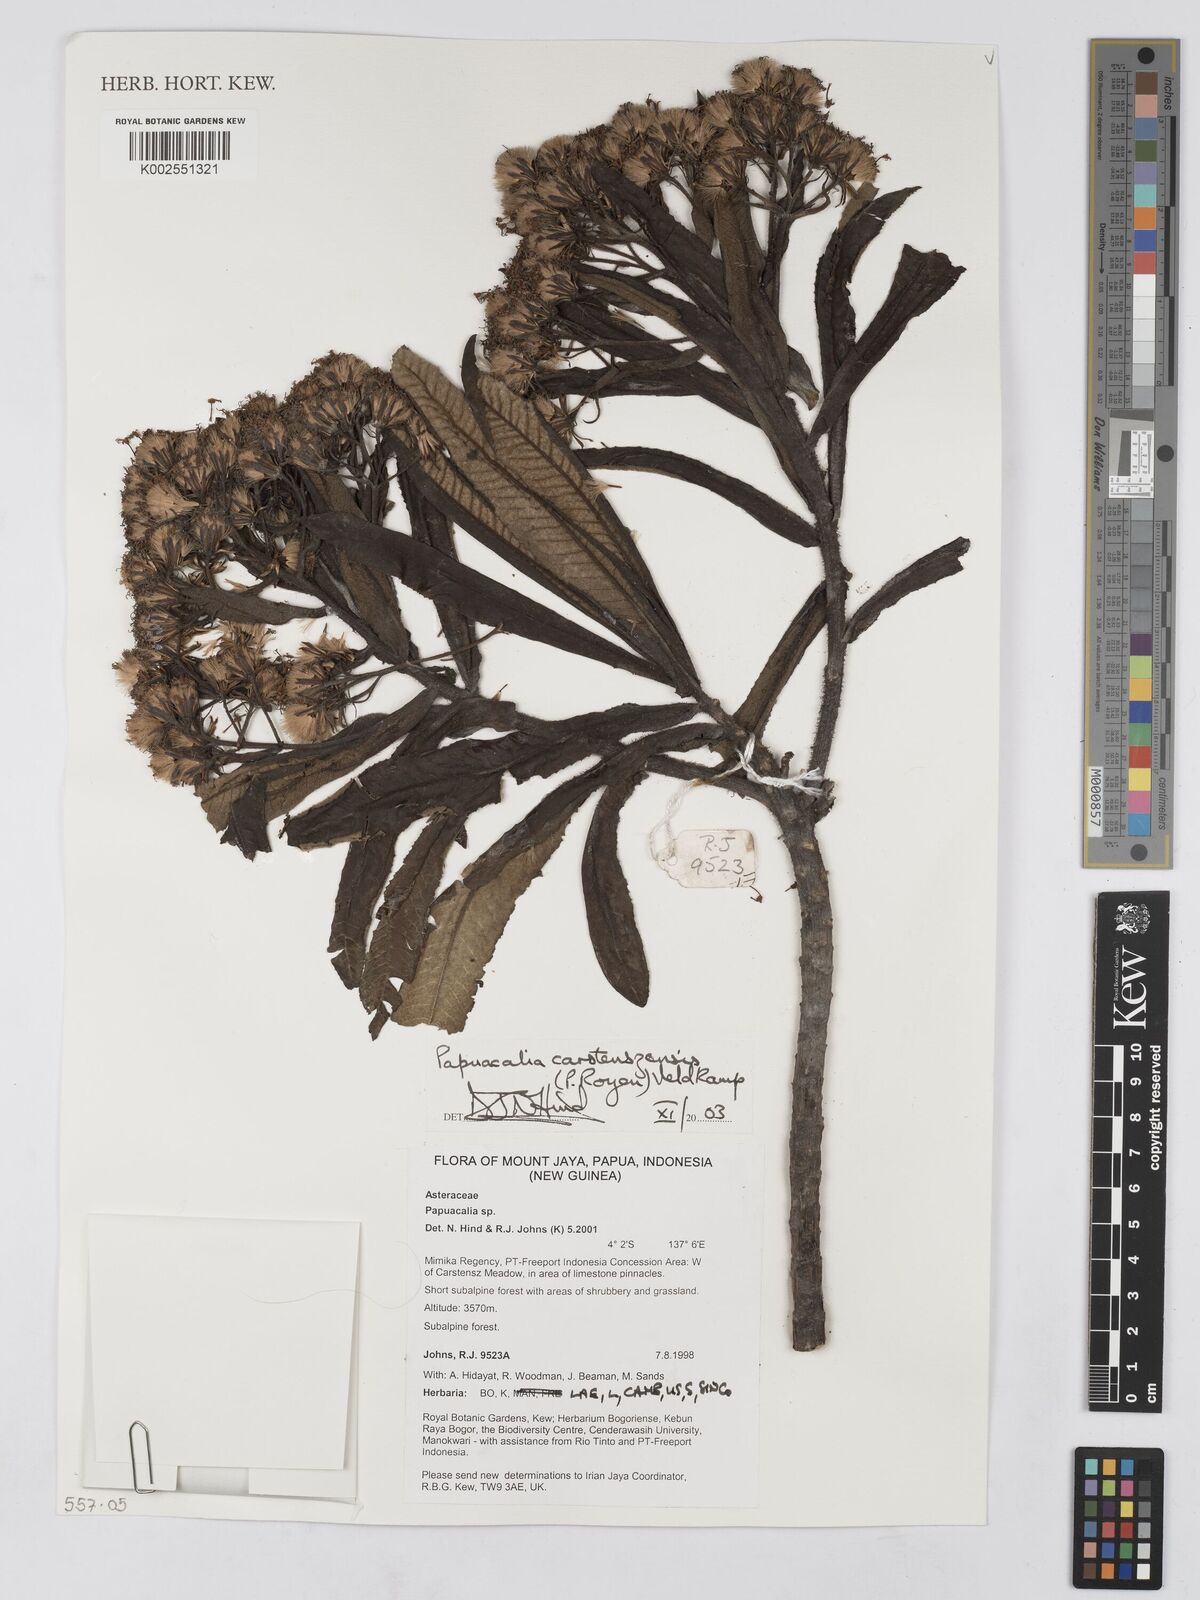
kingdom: Plantae
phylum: Tracheophyta
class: Magnoliopsida
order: Asterales
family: Asteraceae
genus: Papuacalia
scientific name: Papuacalia carstenszensis
